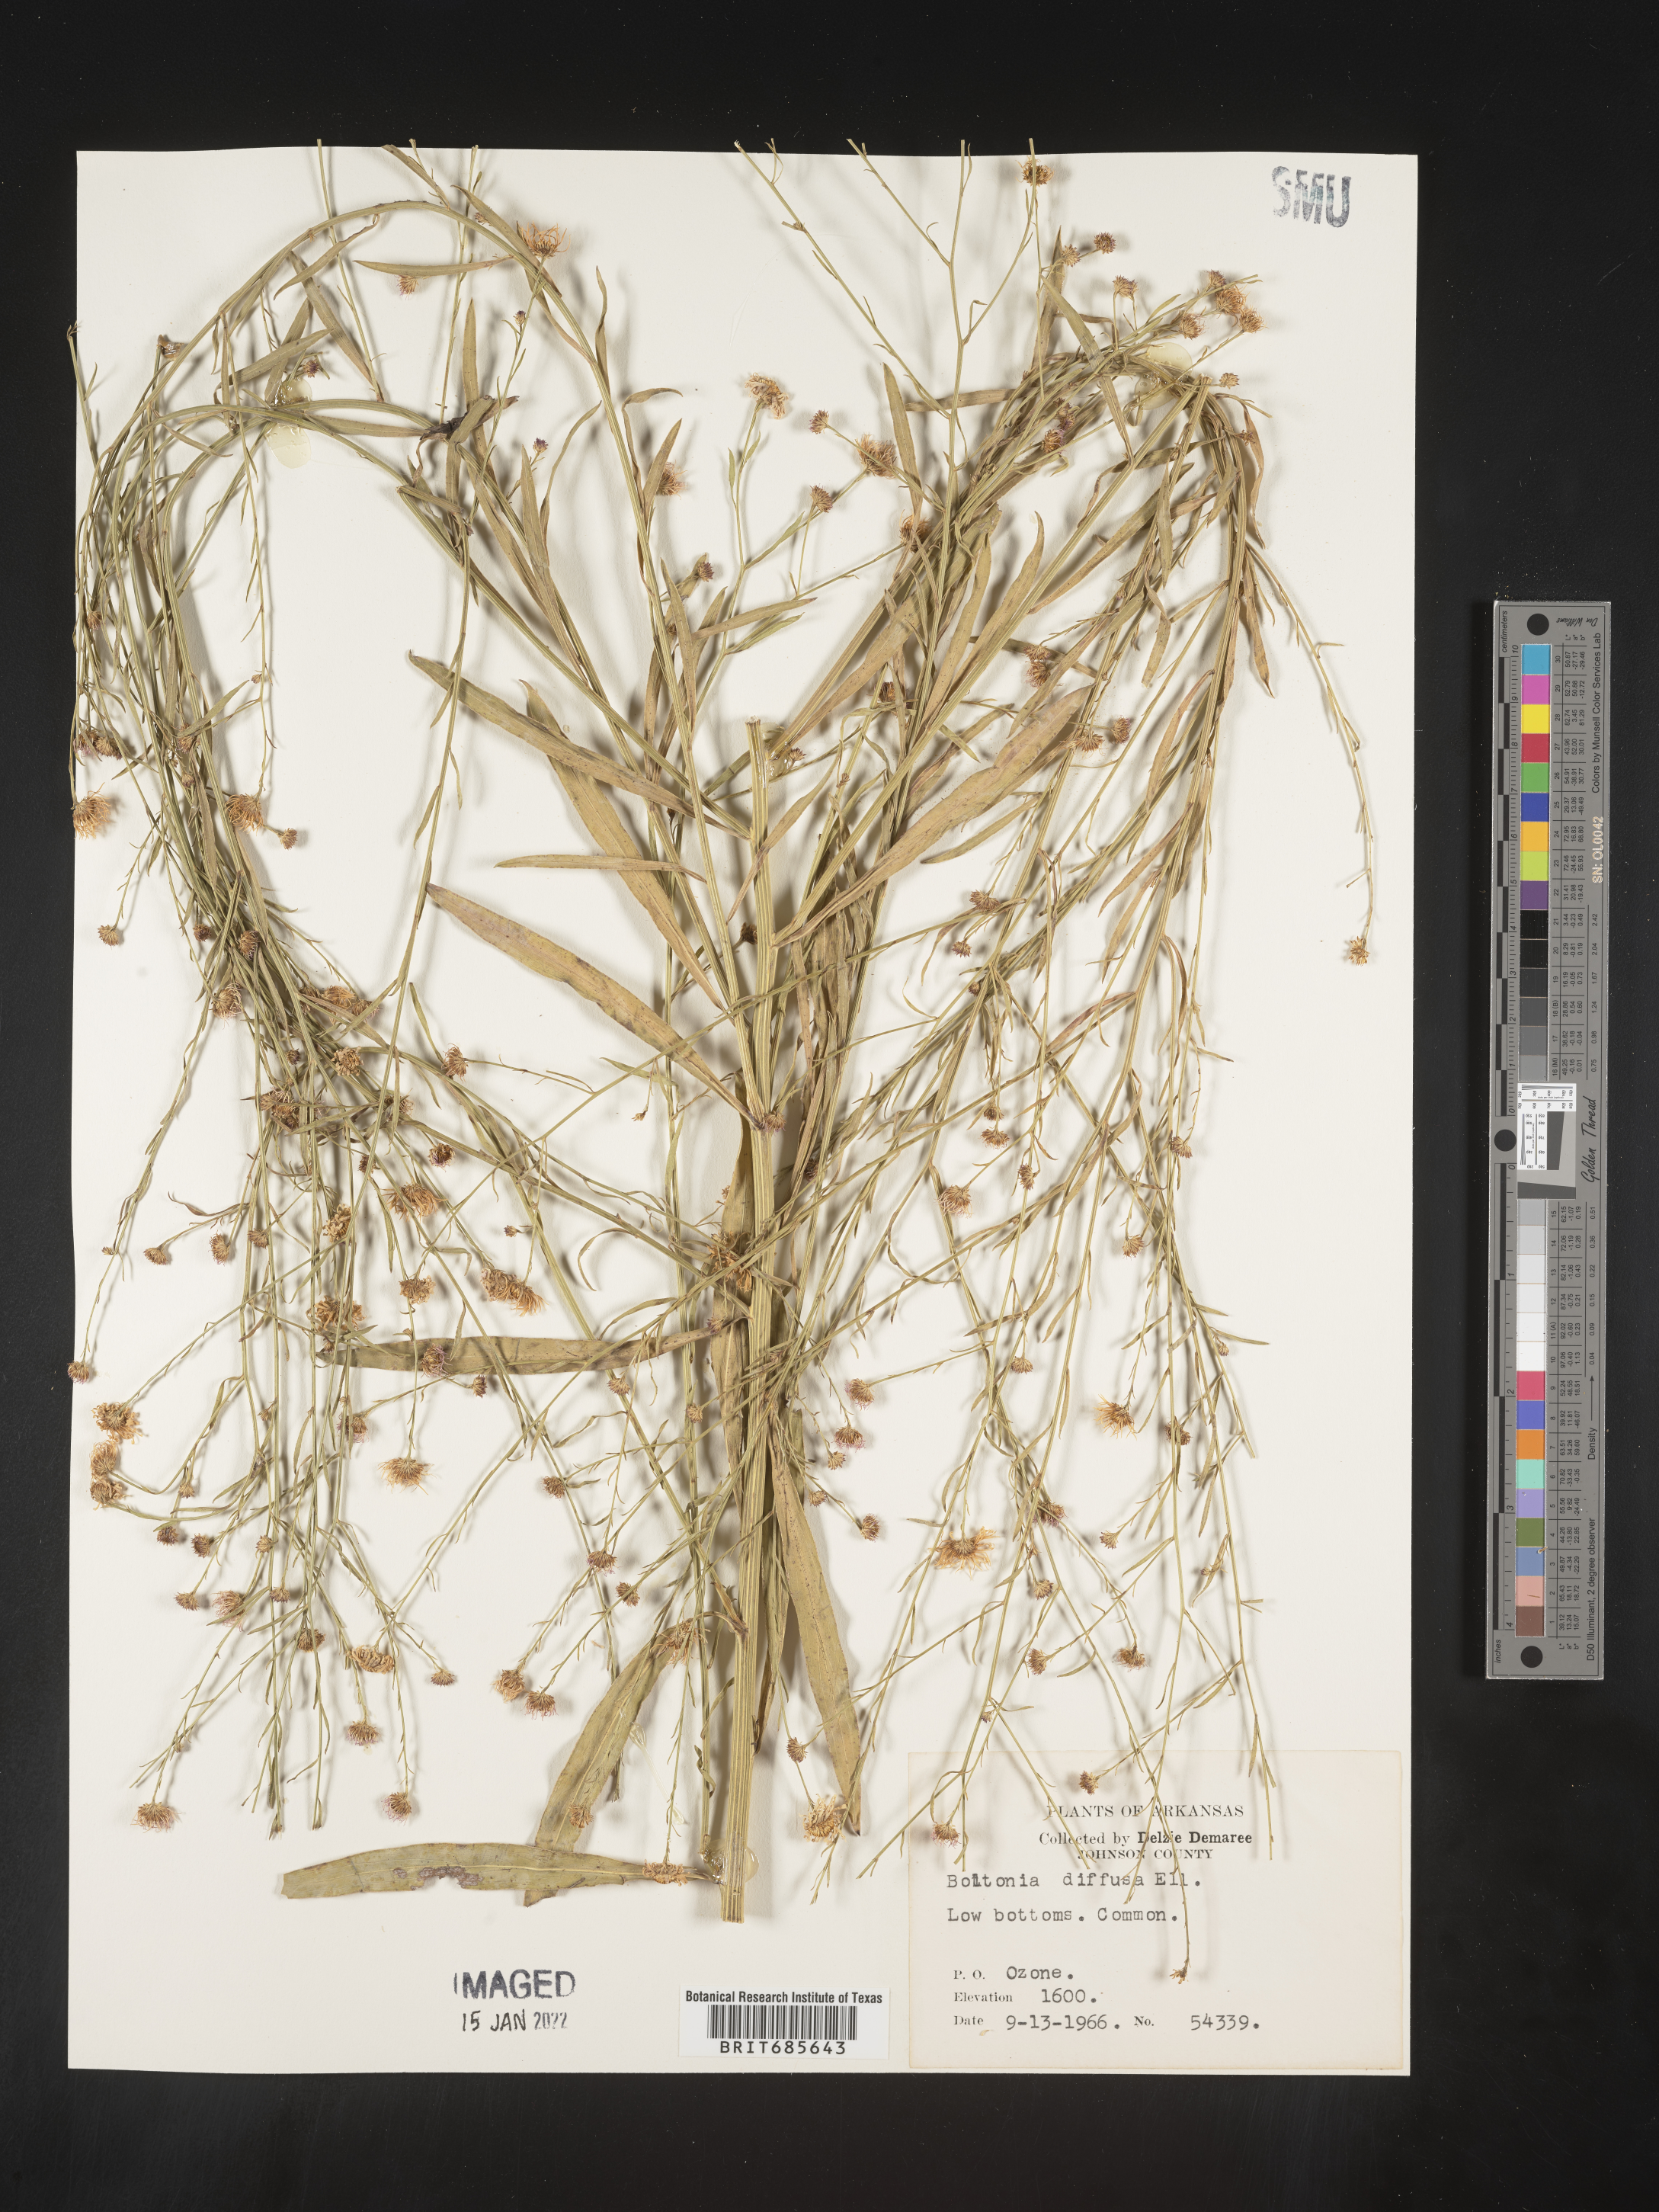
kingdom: Plantae
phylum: Tracheophyta
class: Magnoliopsida
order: Asterales
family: Asteraceae
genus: Boltonia
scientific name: Boltonia diffusa
